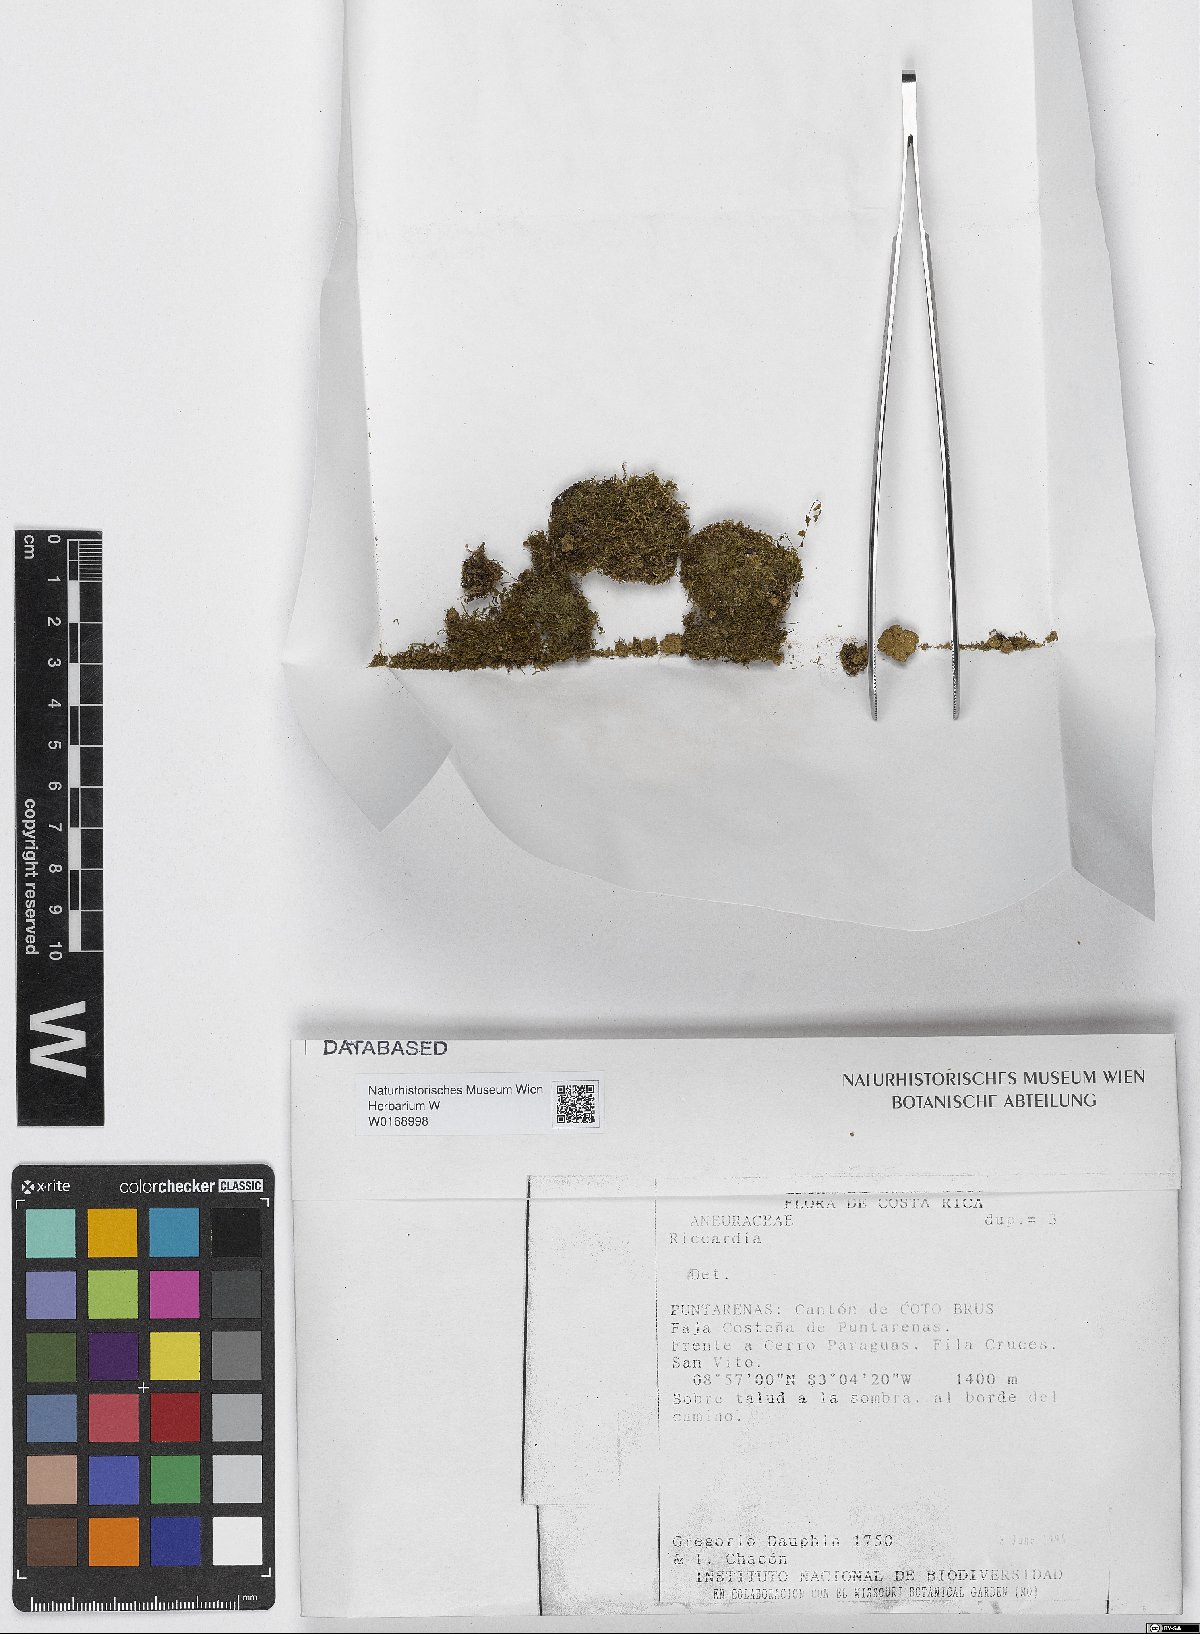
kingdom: Plantae
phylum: Marchantiophyta
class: Jungermanniopsida
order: Metzgeriales
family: Aneuraceae
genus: Riccardia
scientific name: Riccardia
